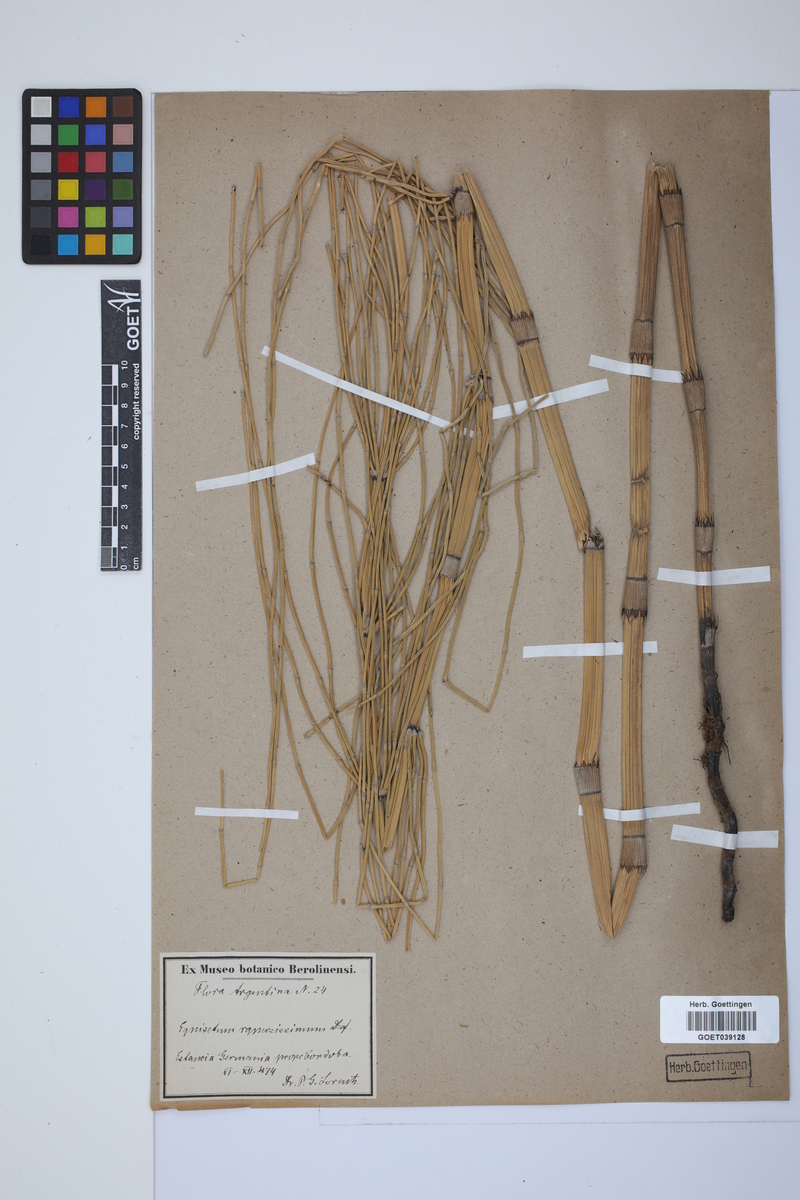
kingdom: Plantae
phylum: Tracheophyta
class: Polypodiopsida
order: Equisetales
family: Equisetaceae
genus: Equisetum
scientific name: Equisetum giganteum
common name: Giant horsetail
